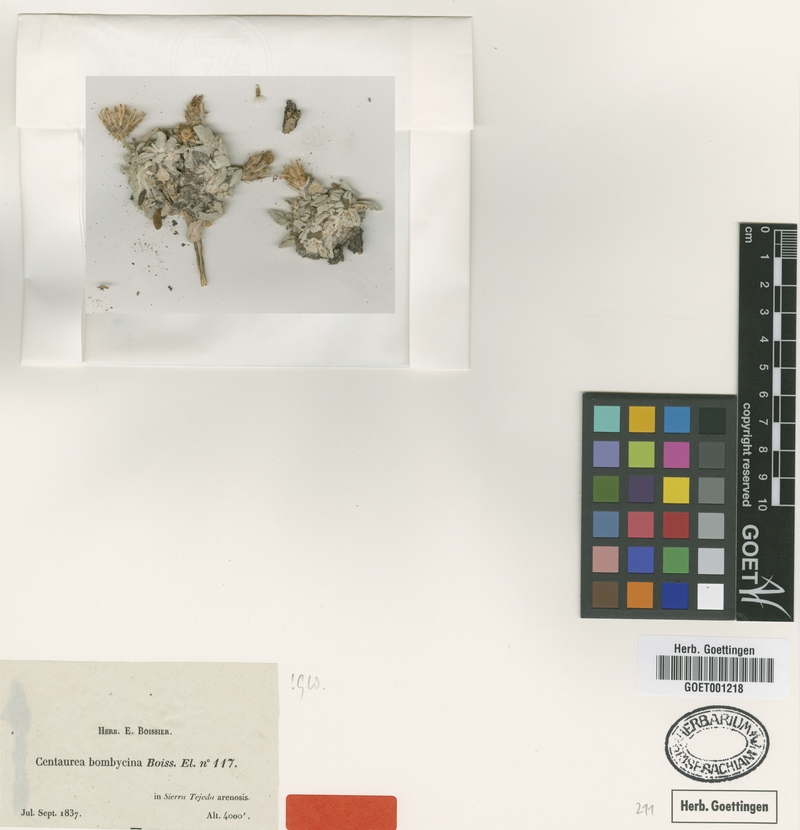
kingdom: Plantae
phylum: Tracheophyta
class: Magnoliopsida
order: Asterales
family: Asteraceae
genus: Centaurea
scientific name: Centaurea bombycina
